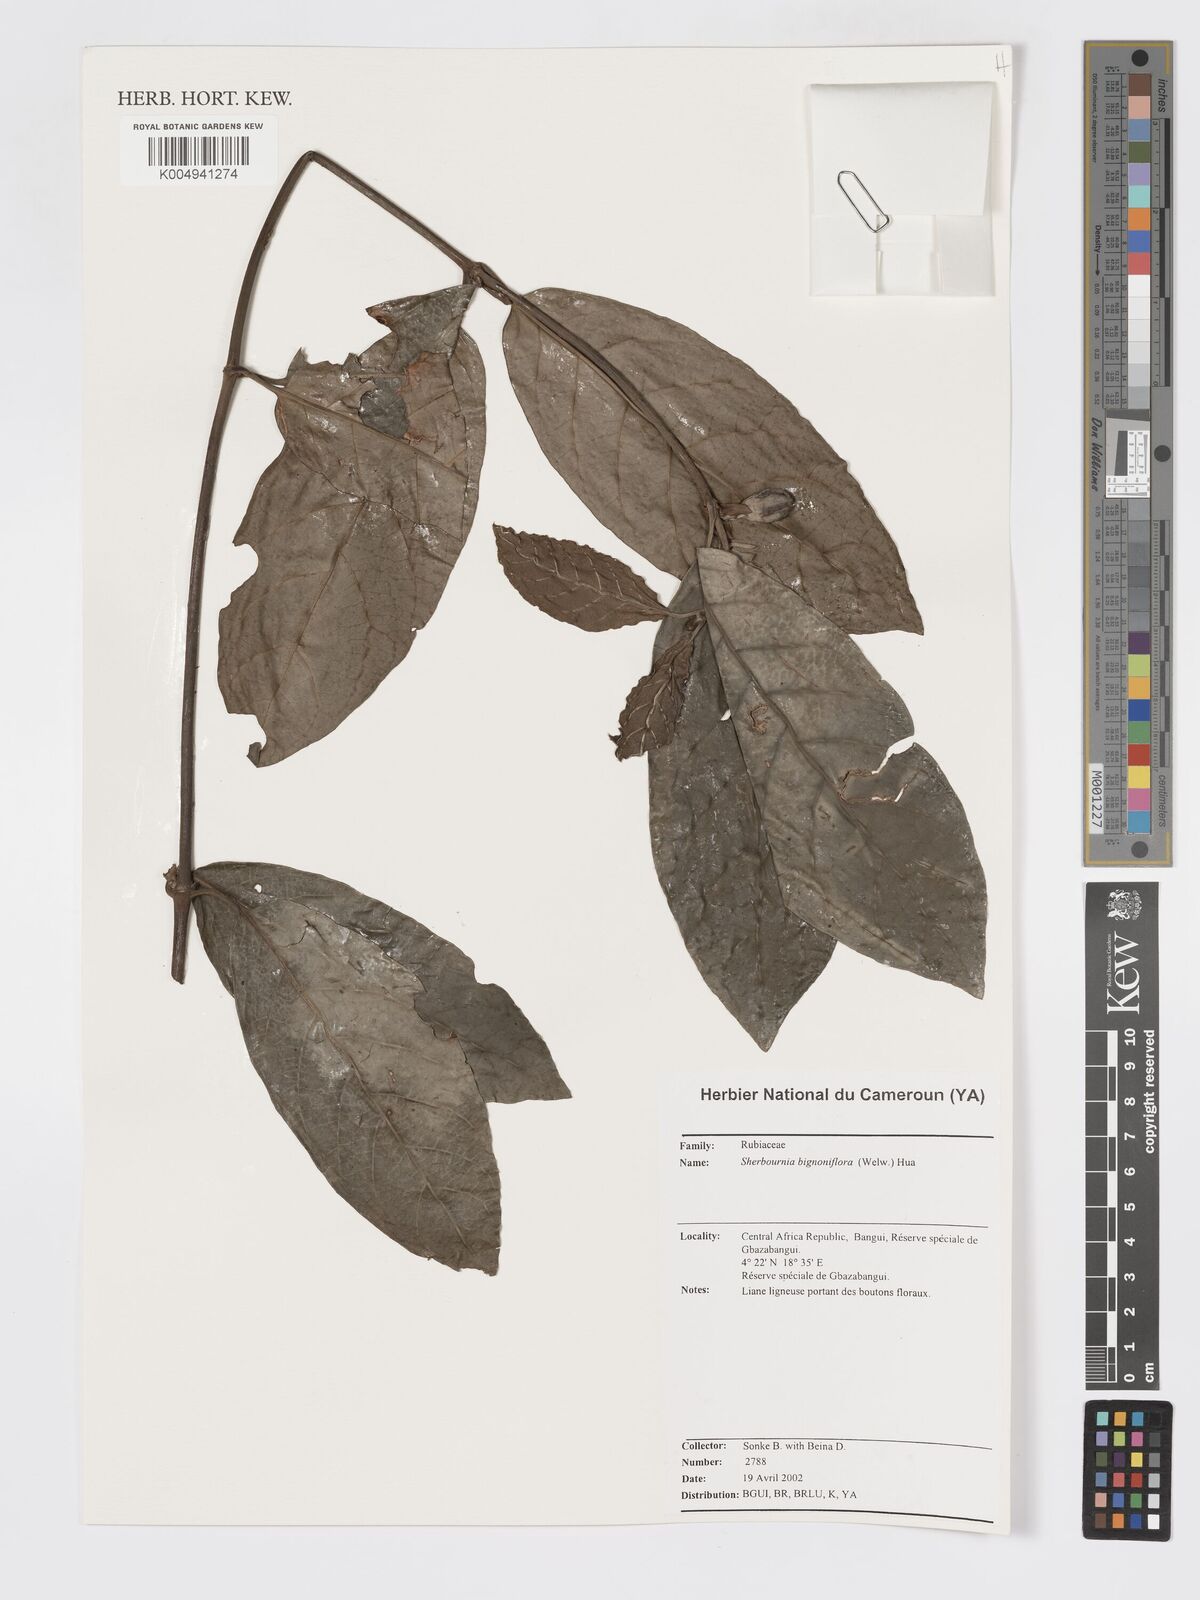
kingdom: Plantae
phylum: Tracheophyta
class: Magnoliopsida
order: Gentianales
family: Rubiaceae
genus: Sherbournia
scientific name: Sherbournia bignoniiflora
